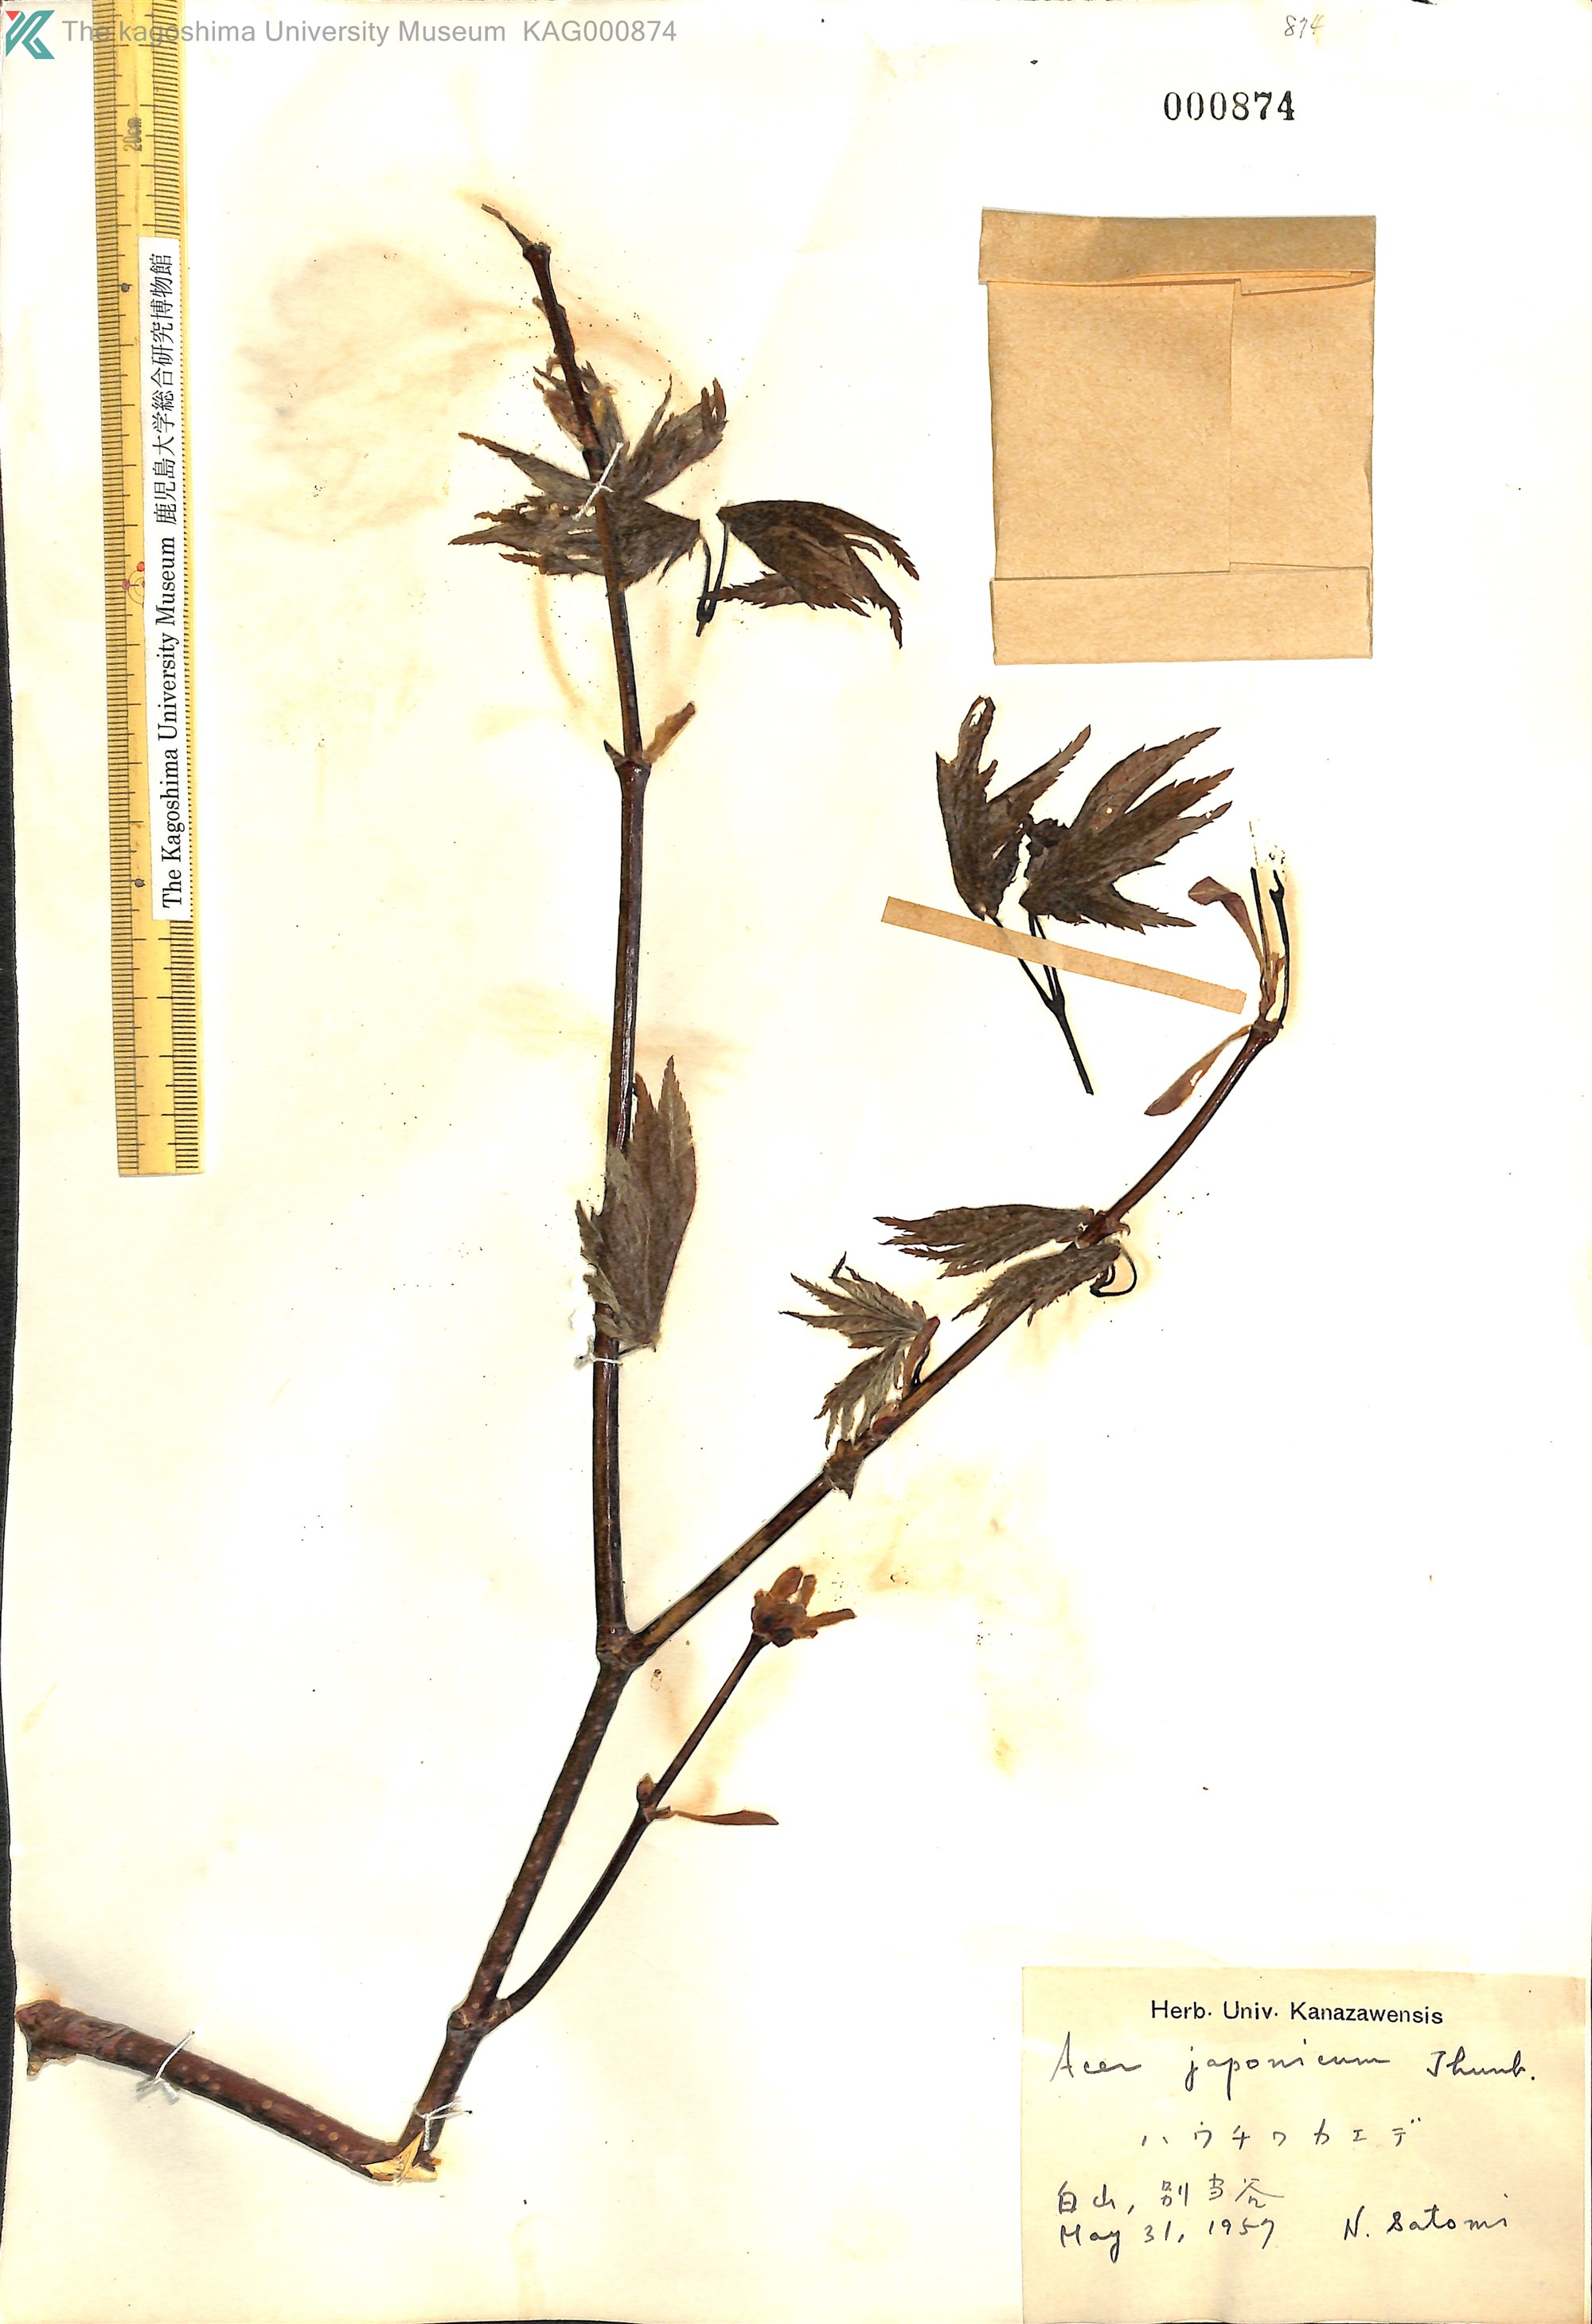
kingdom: Plantae
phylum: Tracheophyta
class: Magnoliopsida
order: Sapindales
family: Sapindaceae
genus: Acer
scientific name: Acer japonicum
